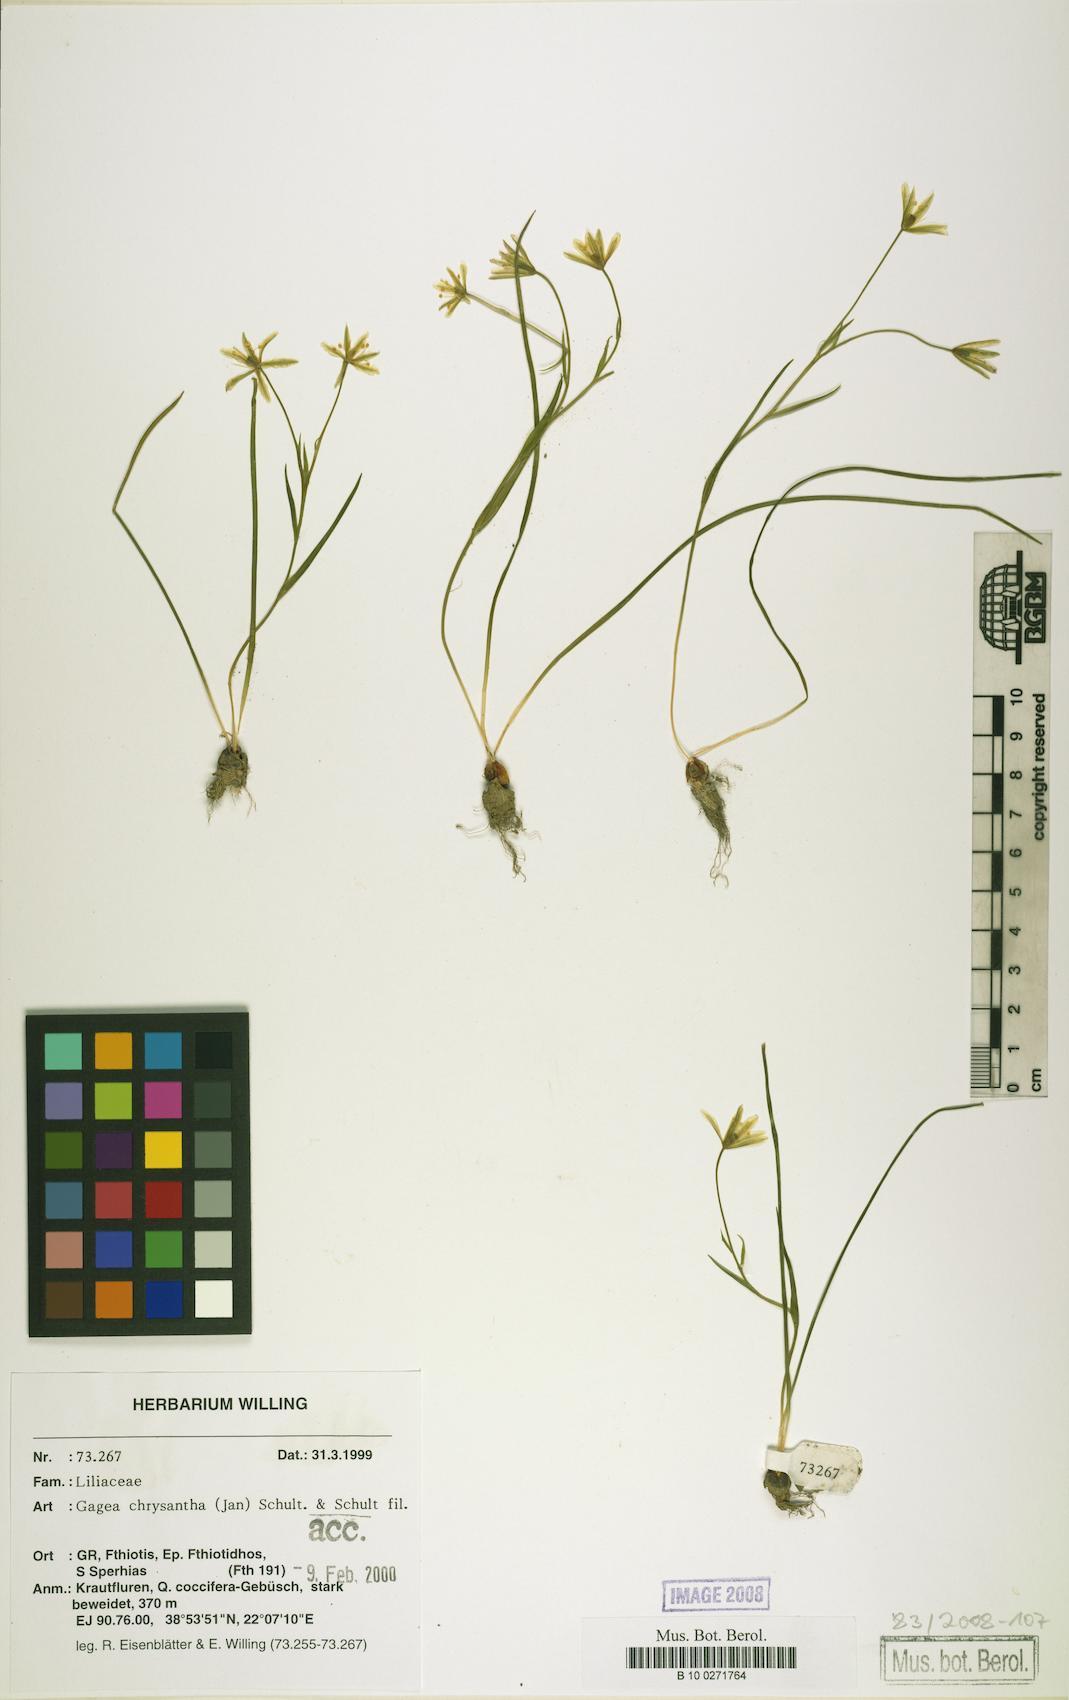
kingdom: Plantae
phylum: Tracheophyta
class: Liliopsida
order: Liliales
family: Liliaceae
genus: Gagea
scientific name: Gagea chrysantha
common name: Golden gagea
